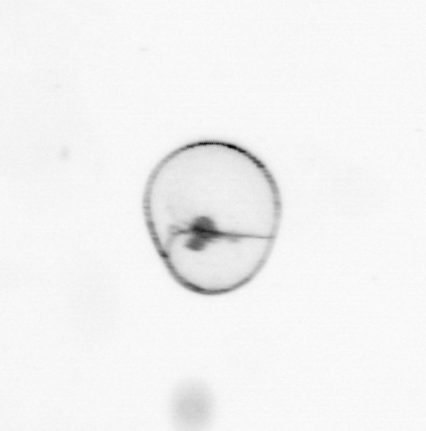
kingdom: Chromista
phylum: Myzozoa
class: Dinophyceae
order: Noctilucales
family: Noctilucaceae
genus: Noctiluca
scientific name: Noctiluca scintillans
